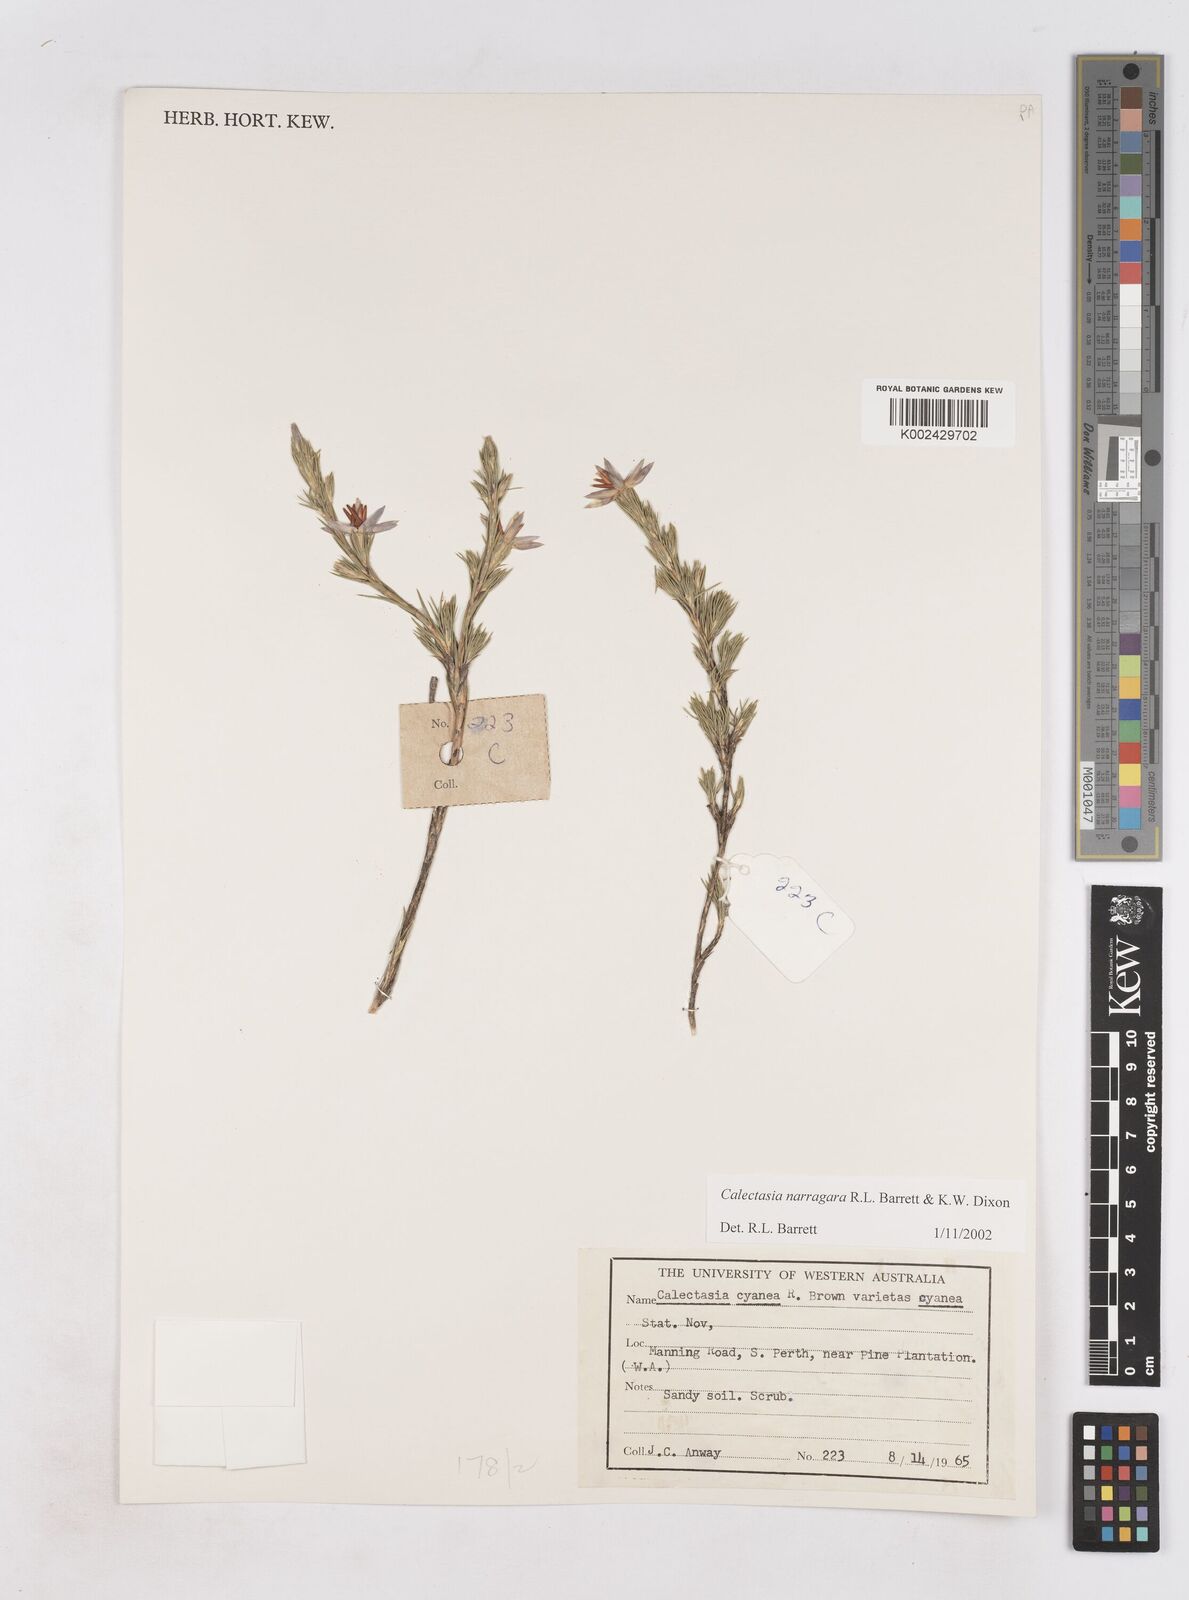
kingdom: Plantae
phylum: Tracheophyta
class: Liliopsida
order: Arecales
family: Dasypogonaceae
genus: Calectasia
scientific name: Calectasia narragara
